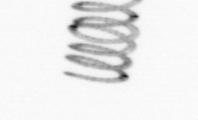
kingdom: Chromista
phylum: Ochrophyta
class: Bacillariophyceae
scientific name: Bacillariophyceae
